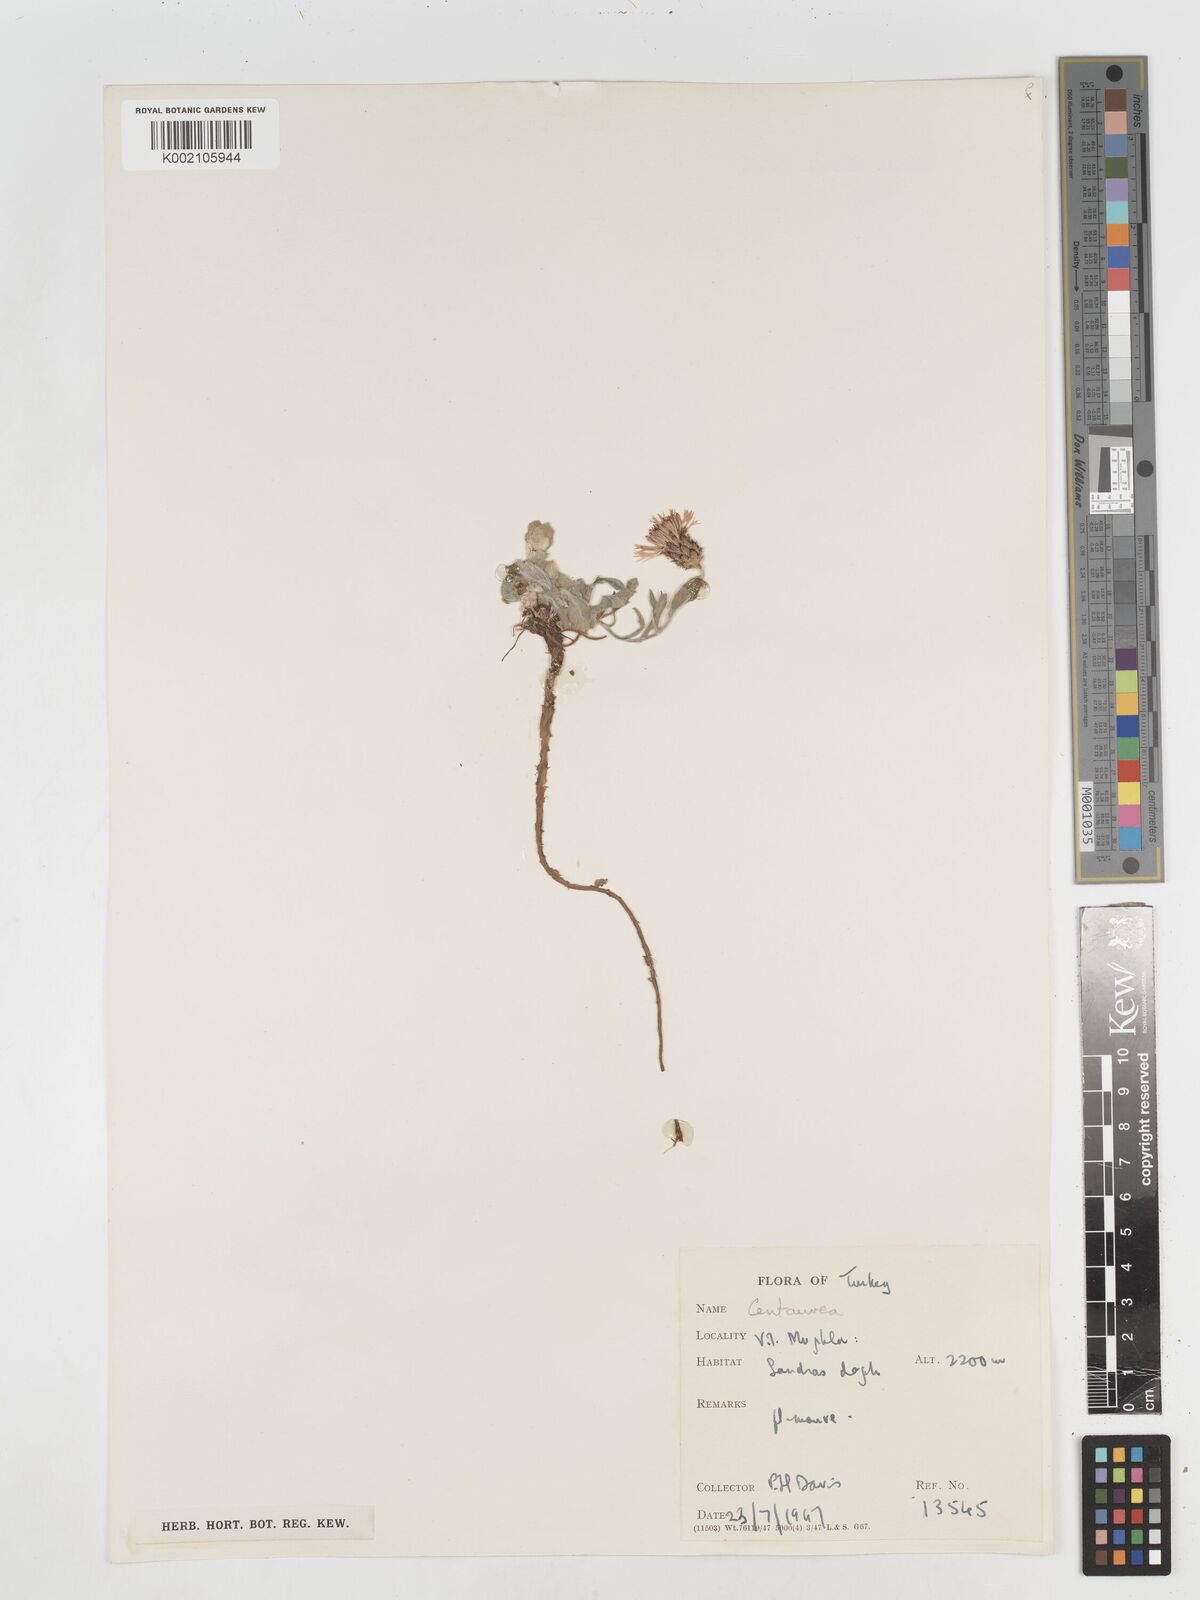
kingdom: Plantae
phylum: Tracheophyta
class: Magnoliopsida
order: Asterales
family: Asteraceae
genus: Centaurea
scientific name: Centaurea
